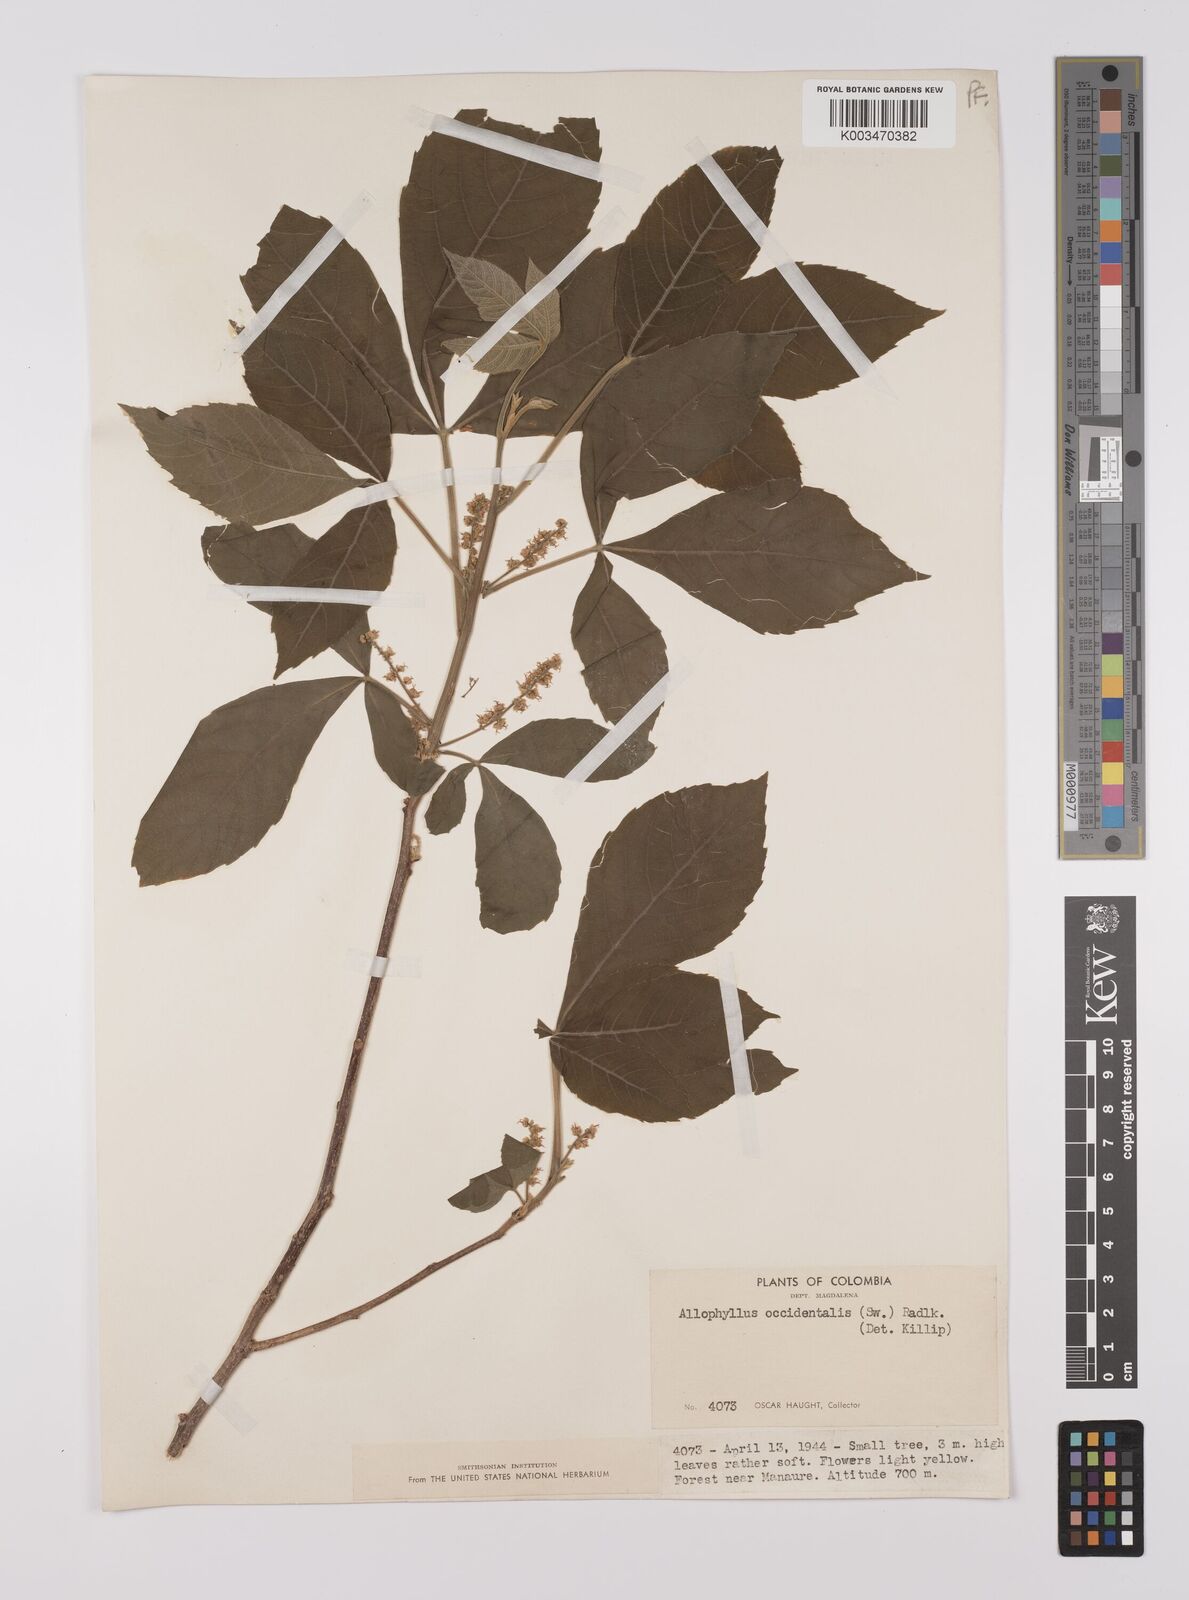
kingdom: Plantae
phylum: Tracheophyta
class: Magnoliopsida
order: Sapindales
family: Sapindaceae
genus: Allophylus
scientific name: Allophylus
